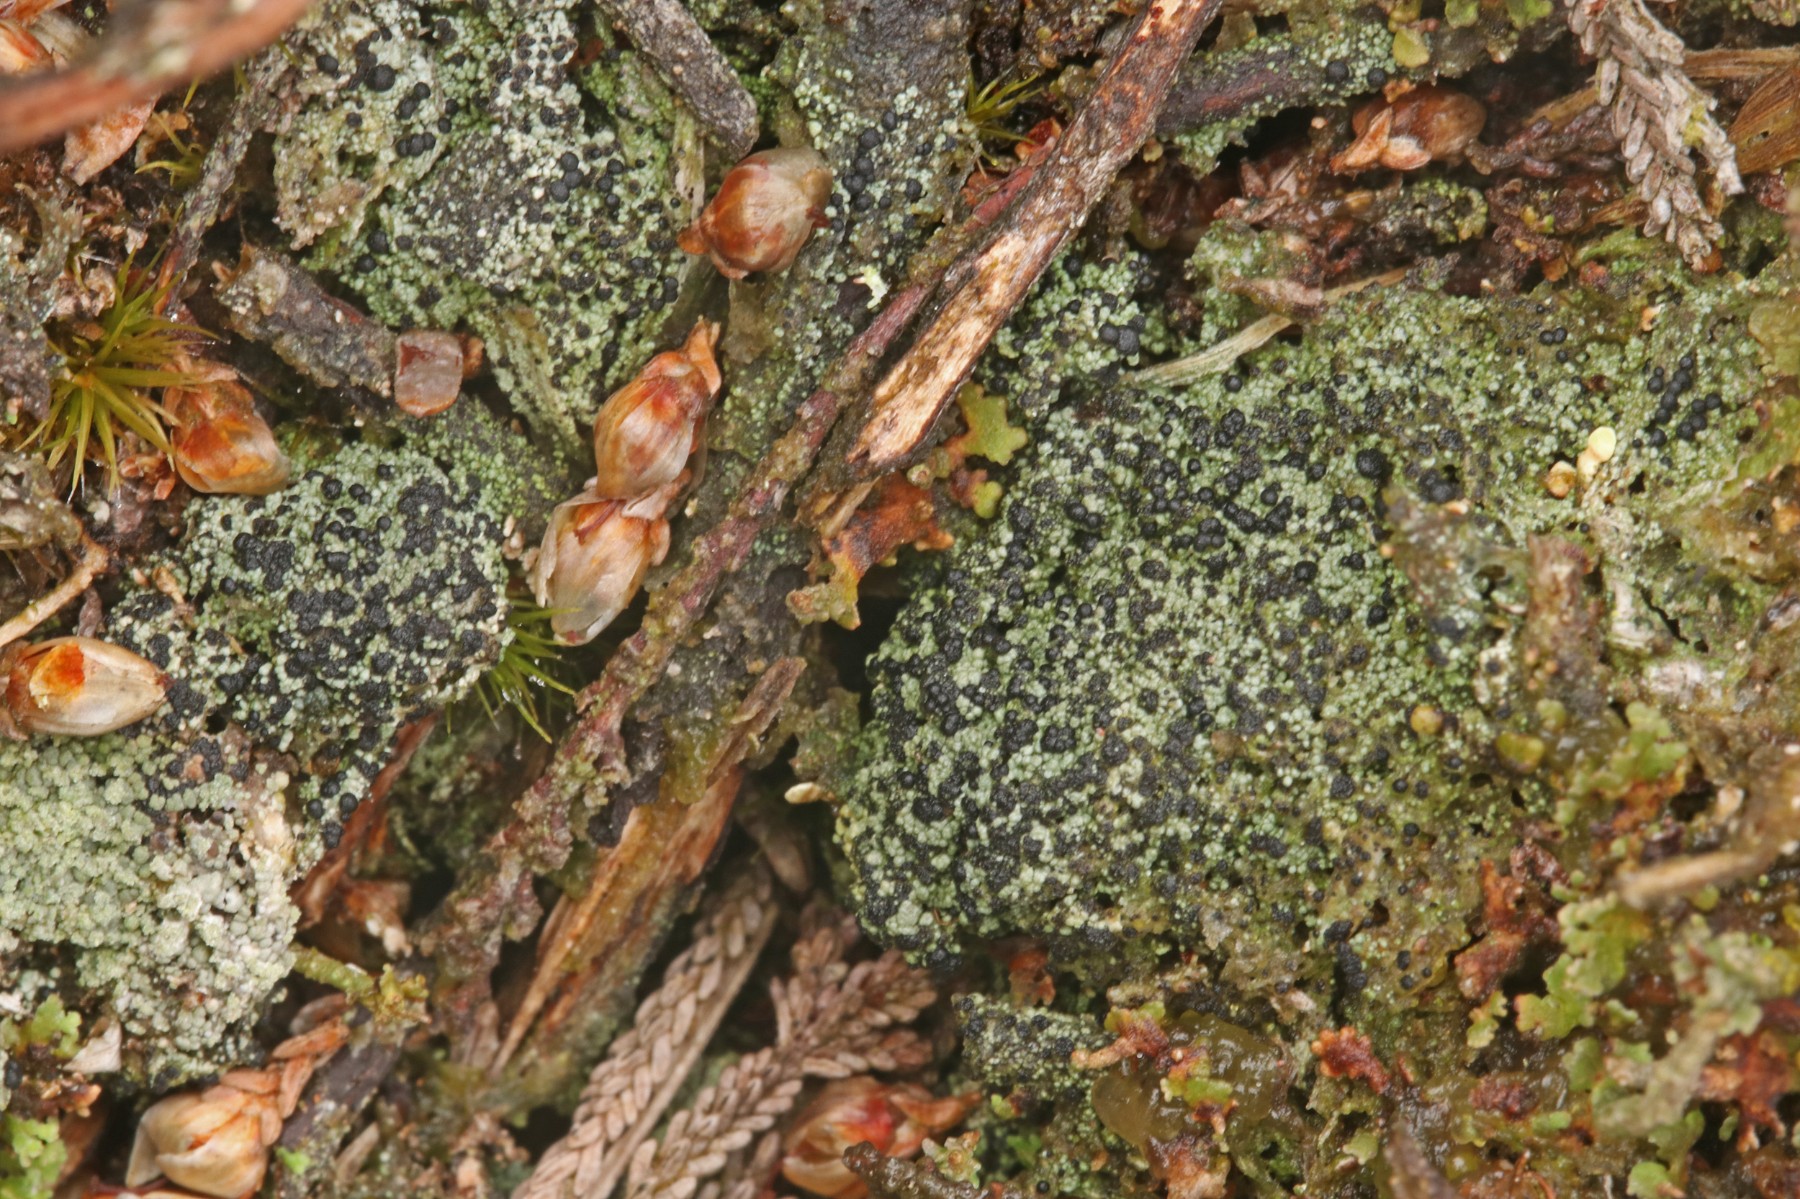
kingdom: Fungi
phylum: Ascomycota
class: Lecanoromycetes
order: Lecanorales
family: Byssolomataceae
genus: Micarea
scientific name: Micarea lignaria
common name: tørve-knaplav
